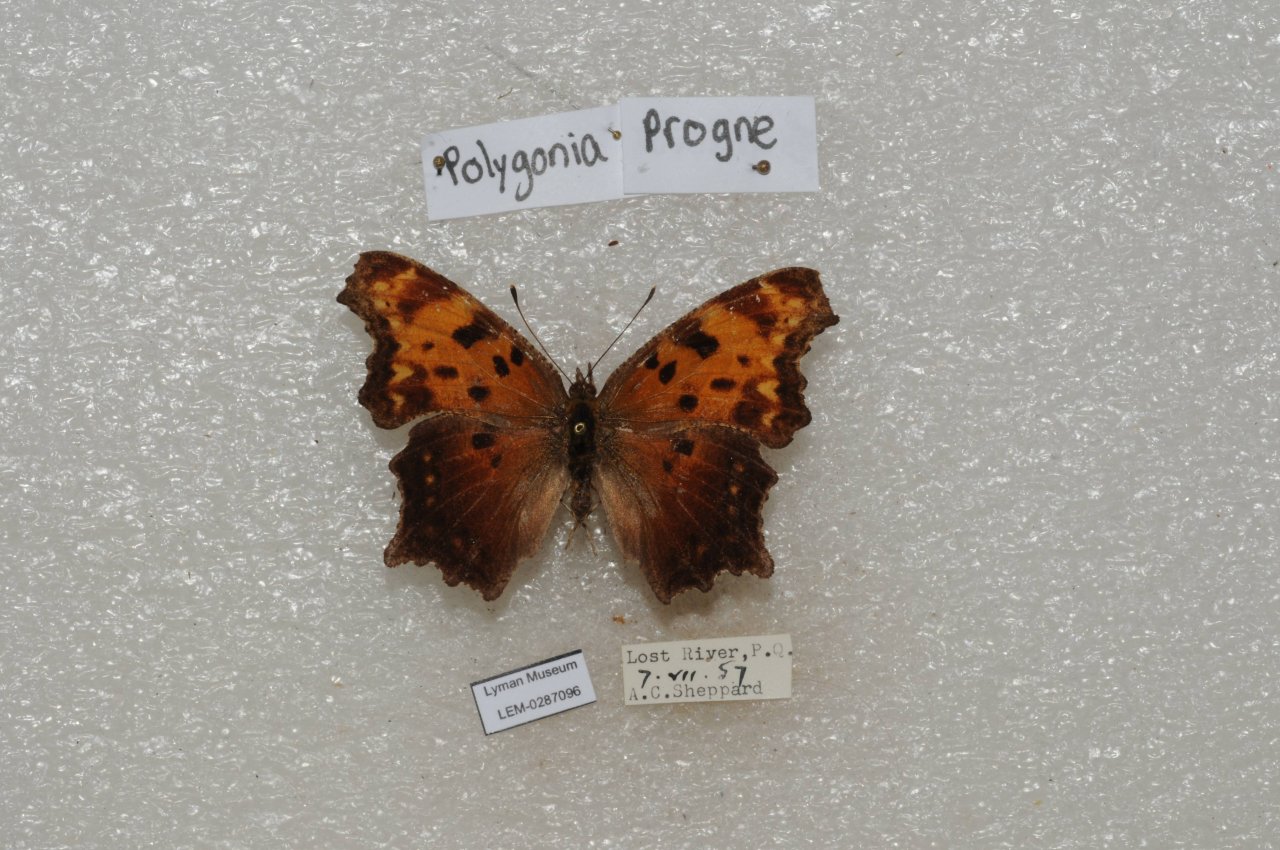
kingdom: Animalia
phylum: Arthropoda
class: Insecta
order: Lepidoptera
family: Nymphalidae
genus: Polygonia
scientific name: Polygonia progne
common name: Gray Comma
